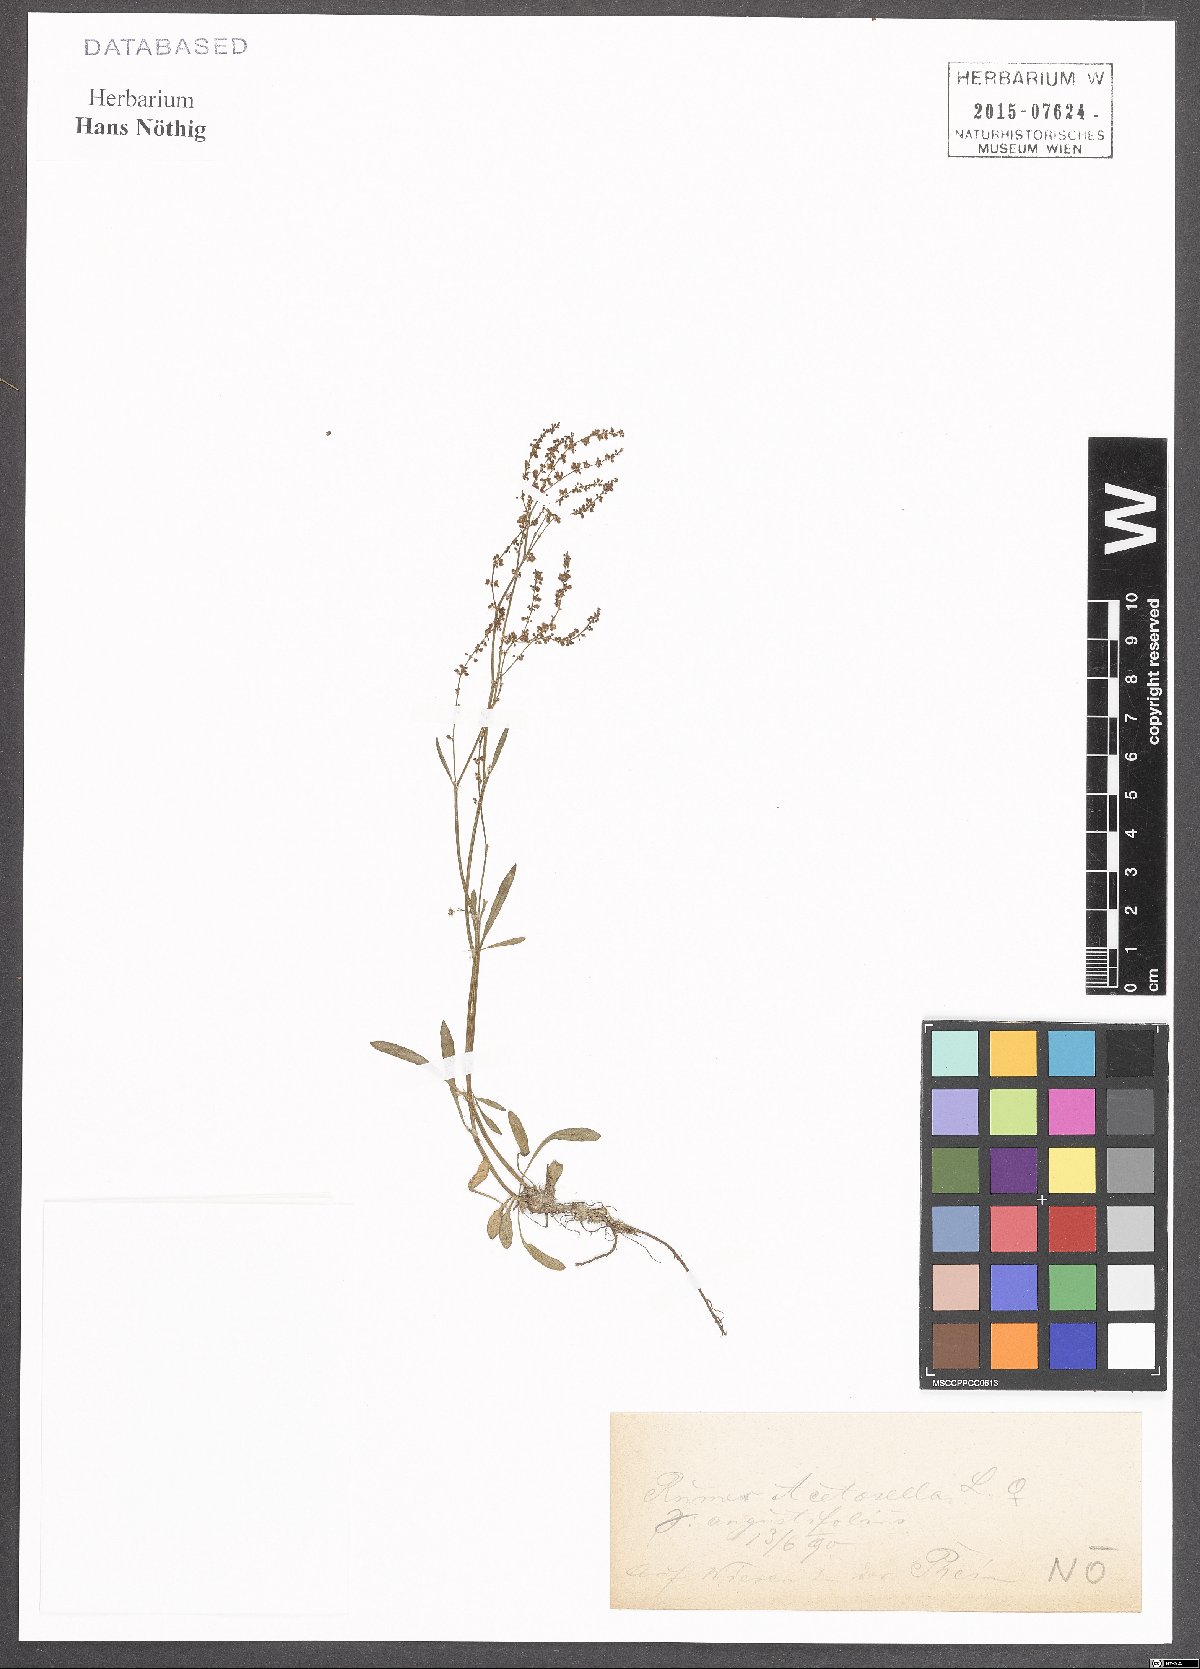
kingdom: Plantae
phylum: Tracheophyta
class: Magnoliopsida
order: Caryophyllales
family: Polygonaceae
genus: Rumex
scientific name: Rumex acetosella
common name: Common sheep sorrel
